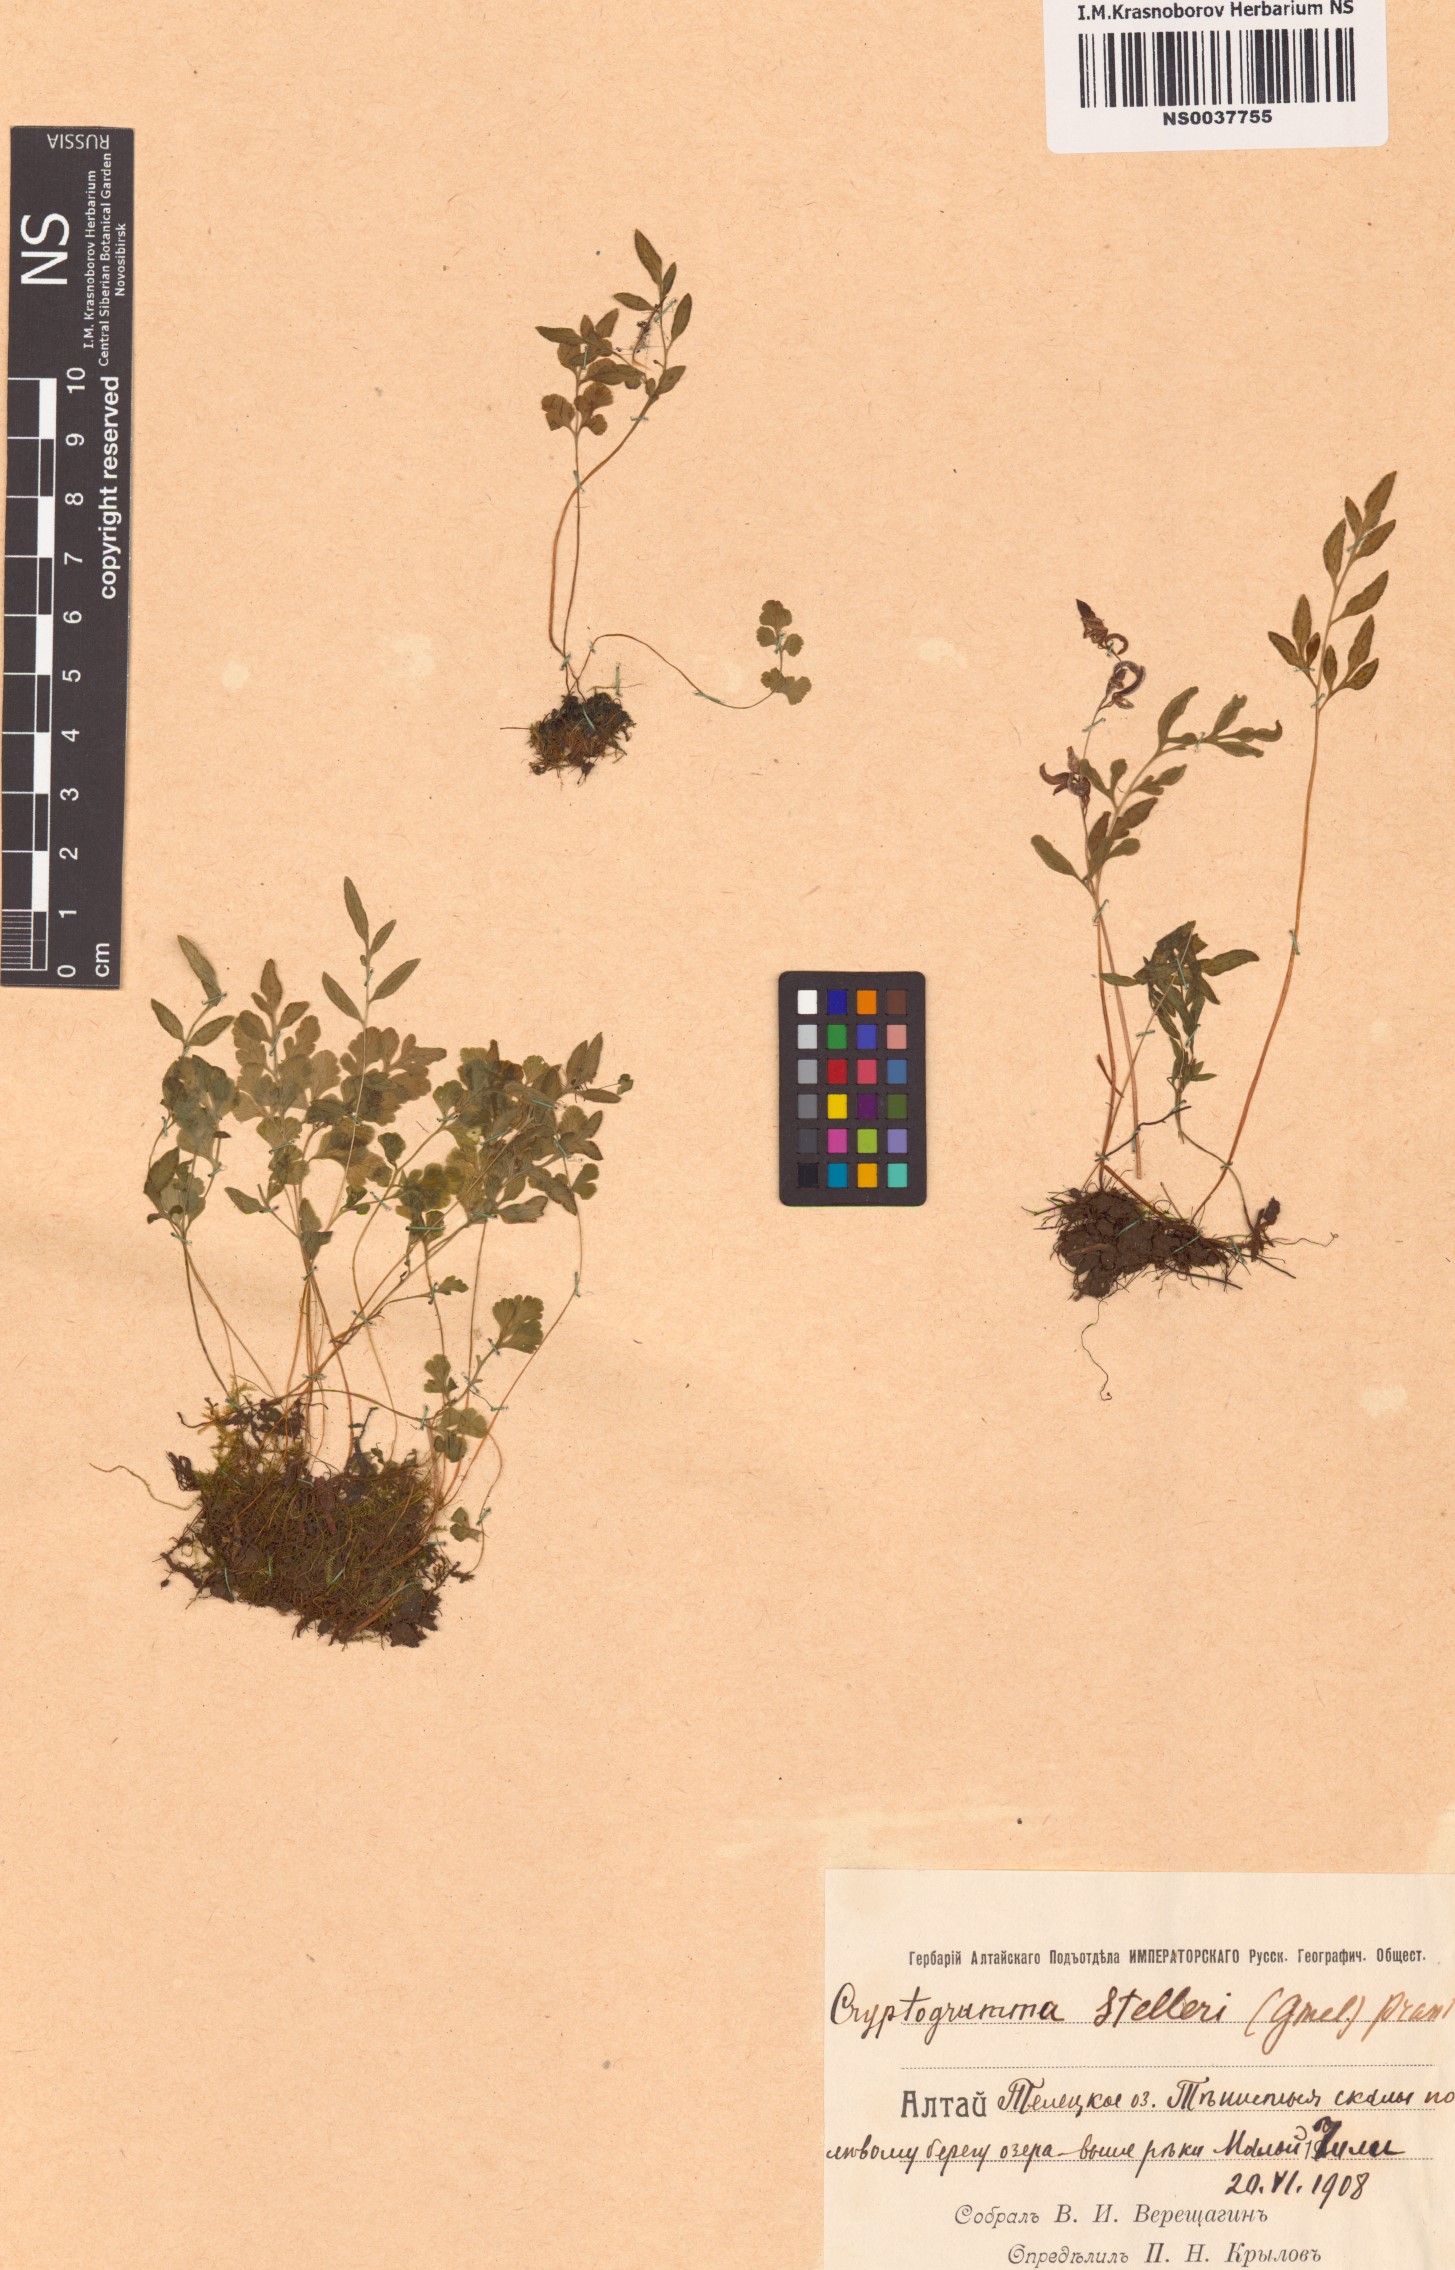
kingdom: Plantae
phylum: Tracheophyta
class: Polypodiopsida
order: Polypodiales
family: Pteridaceae
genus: Cryptogramma
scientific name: Cryptogramma stelleri
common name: Cliff-brake
